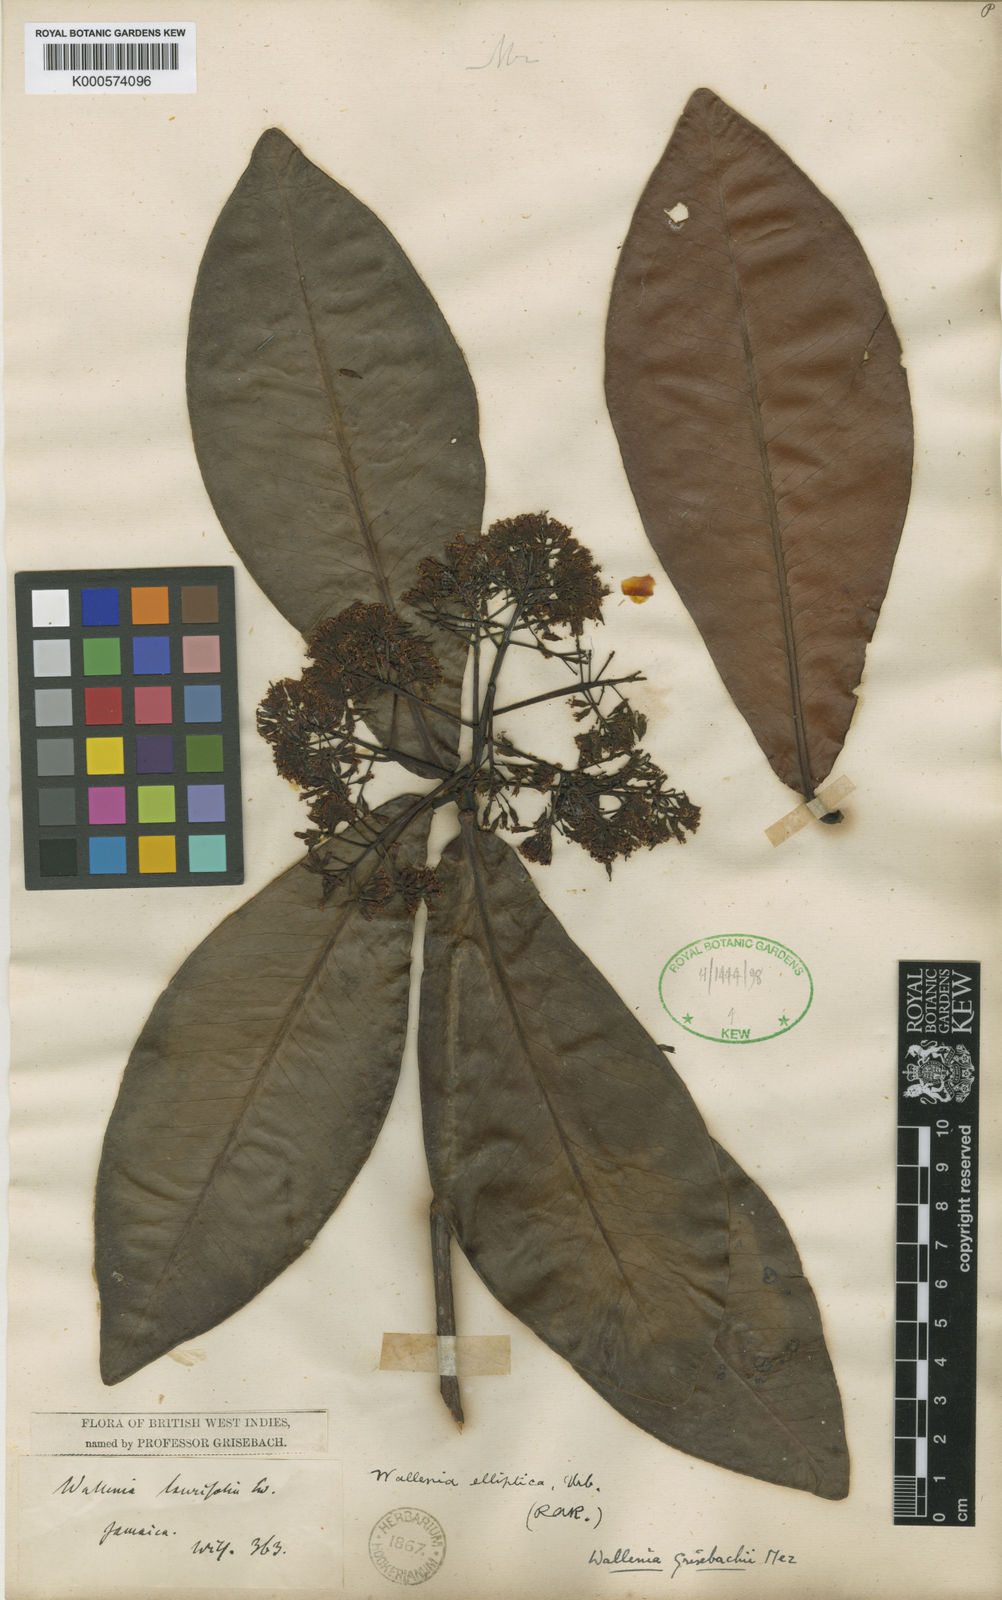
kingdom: Plantae
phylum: Tracheophyta
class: Magnoliopsida
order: Ericales
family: Primulaceae
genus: Wallenia
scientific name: Wallenia elliptica
